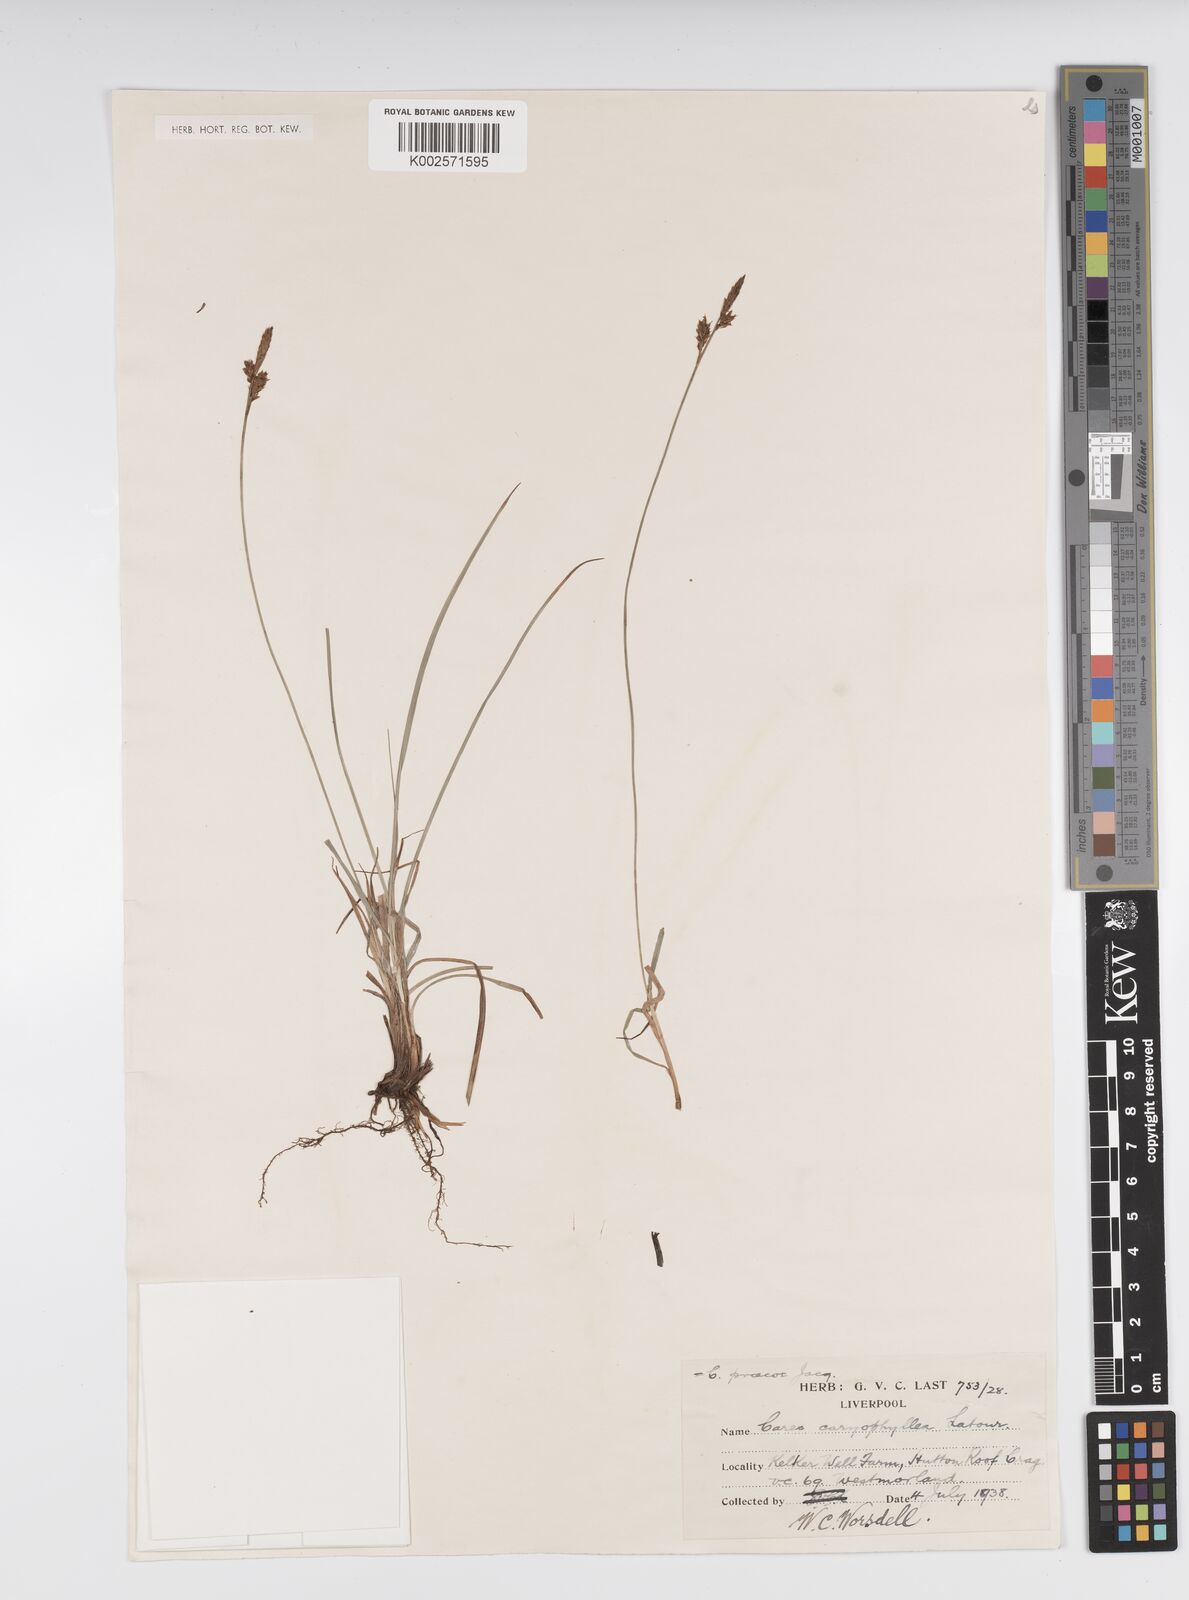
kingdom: Plantae
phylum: Tracheophyta
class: Liliopsida
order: Poales
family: Cyperaceae
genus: Carex
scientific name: Carex caryophyllea
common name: Spring sedge
